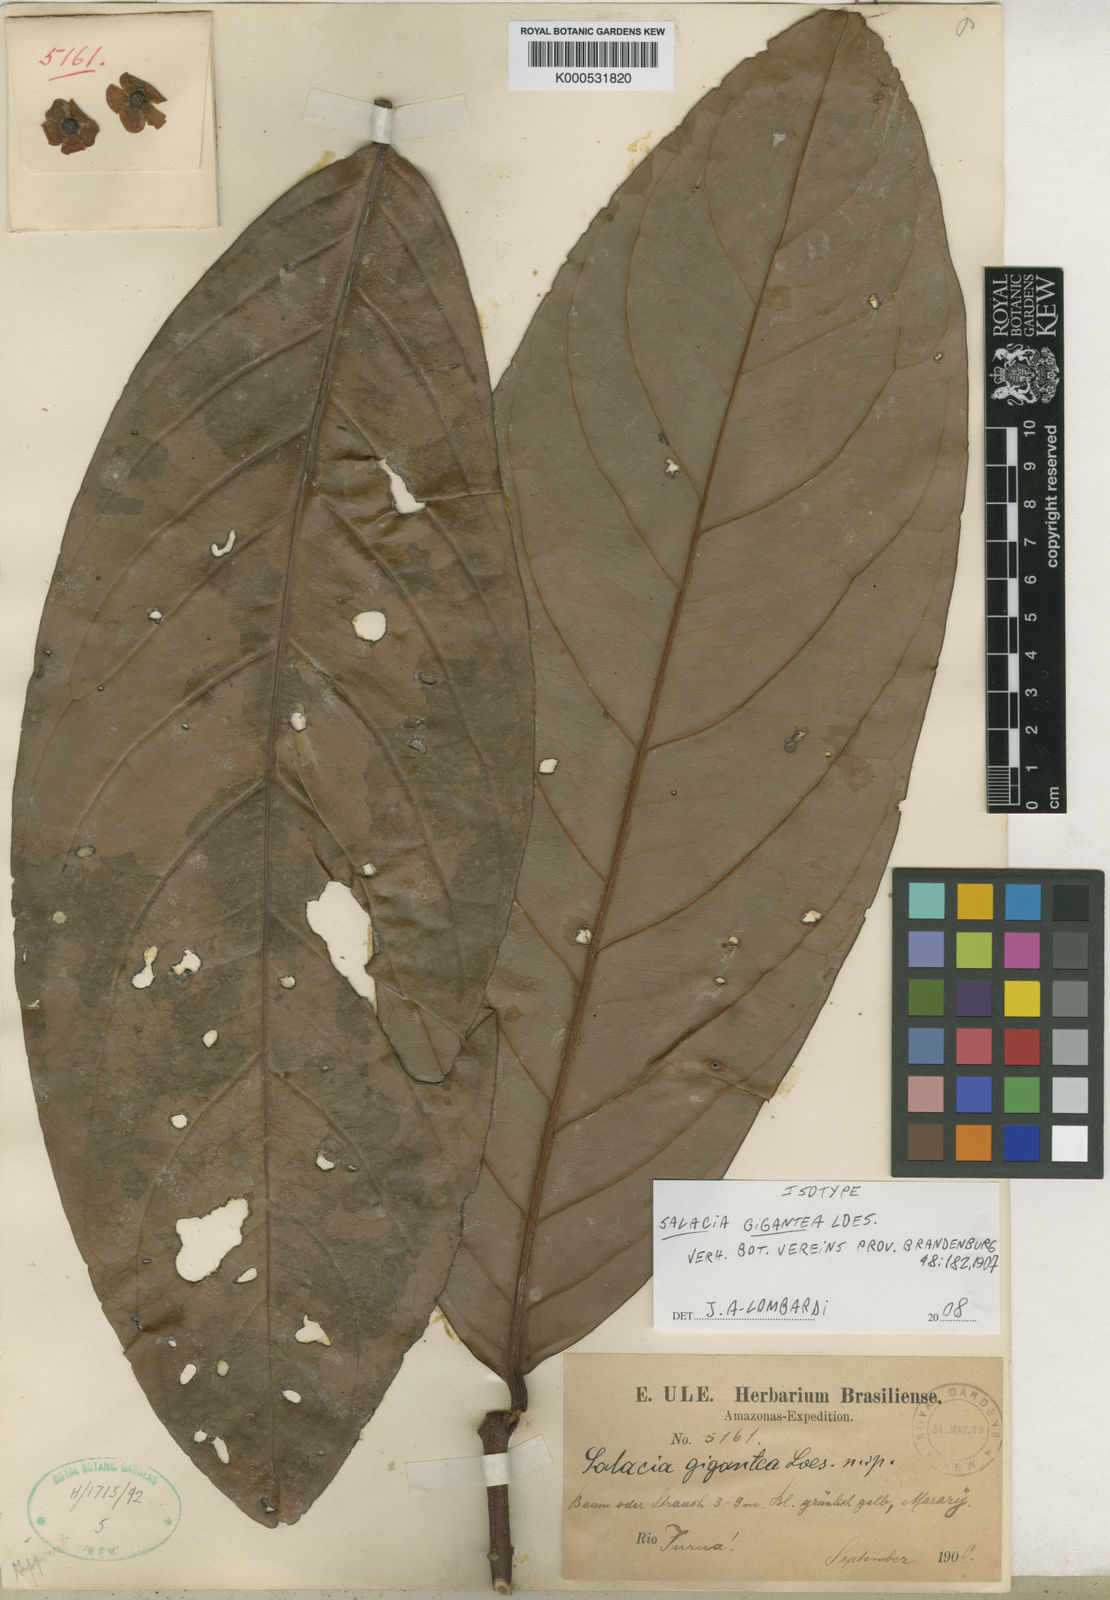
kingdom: Plantae
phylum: Tracheophyta
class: Magnoliopsida
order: Celastrales
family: Celastraceae
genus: Salacia
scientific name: Salacia gigantea
